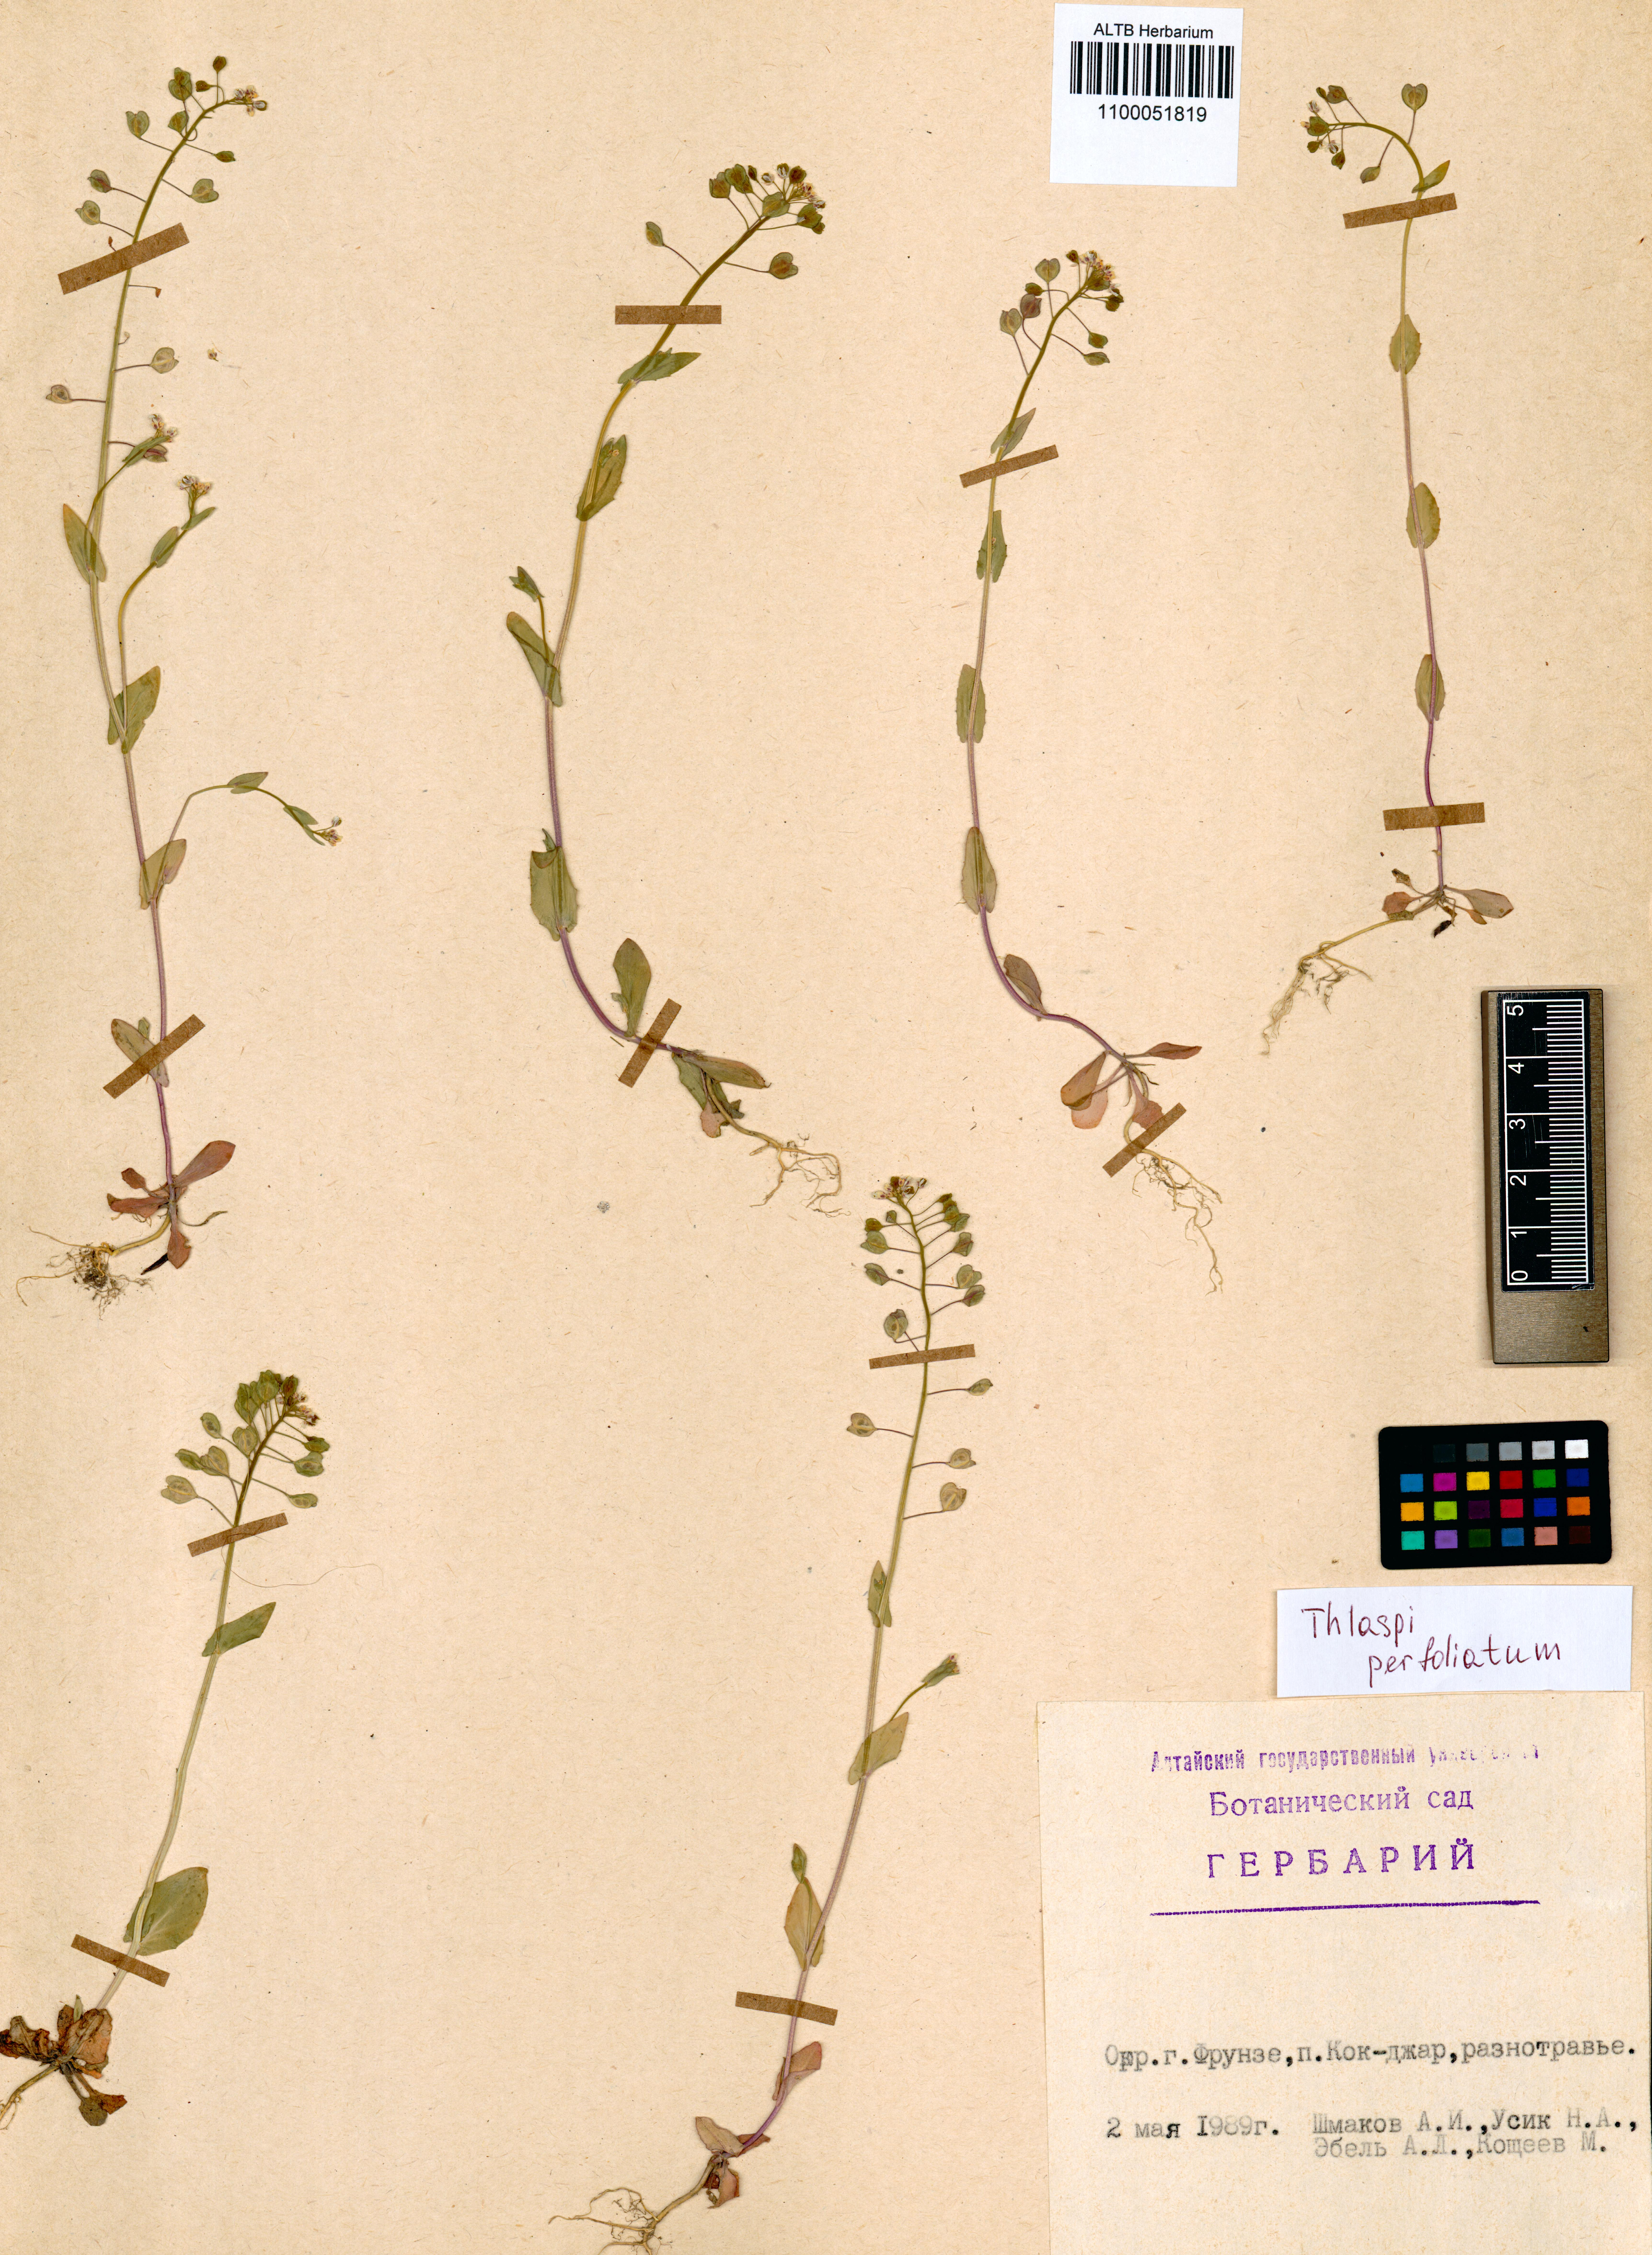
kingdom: Plantae
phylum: Tracheophyta
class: Magnoliopsida
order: Brassicales
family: Brassicaceae
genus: Noccaea
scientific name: Noccaea perfoliata
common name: Perfoliate pennycress
